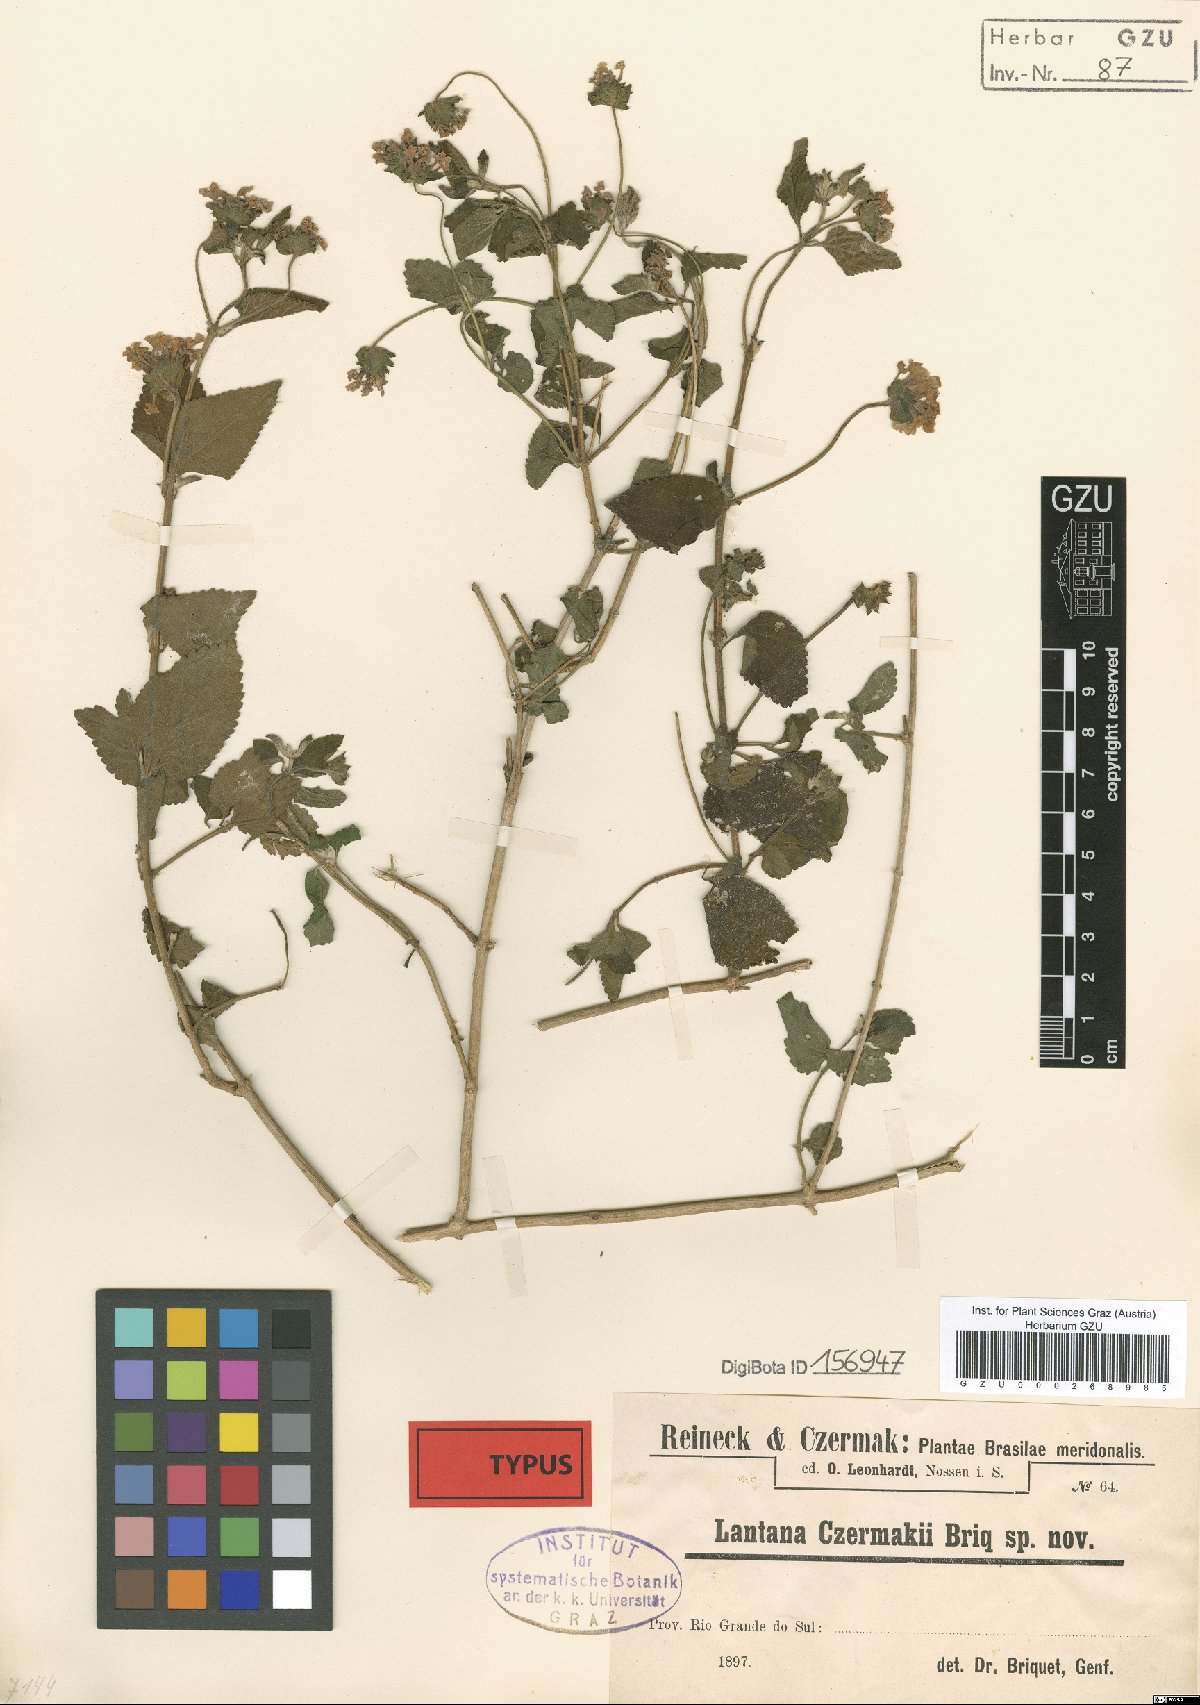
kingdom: Plantae
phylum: Tracheophyta
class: Magnoliopsida
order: Lamiales
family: Verbenaceae
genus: Lantana
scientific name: Lantana fucata
